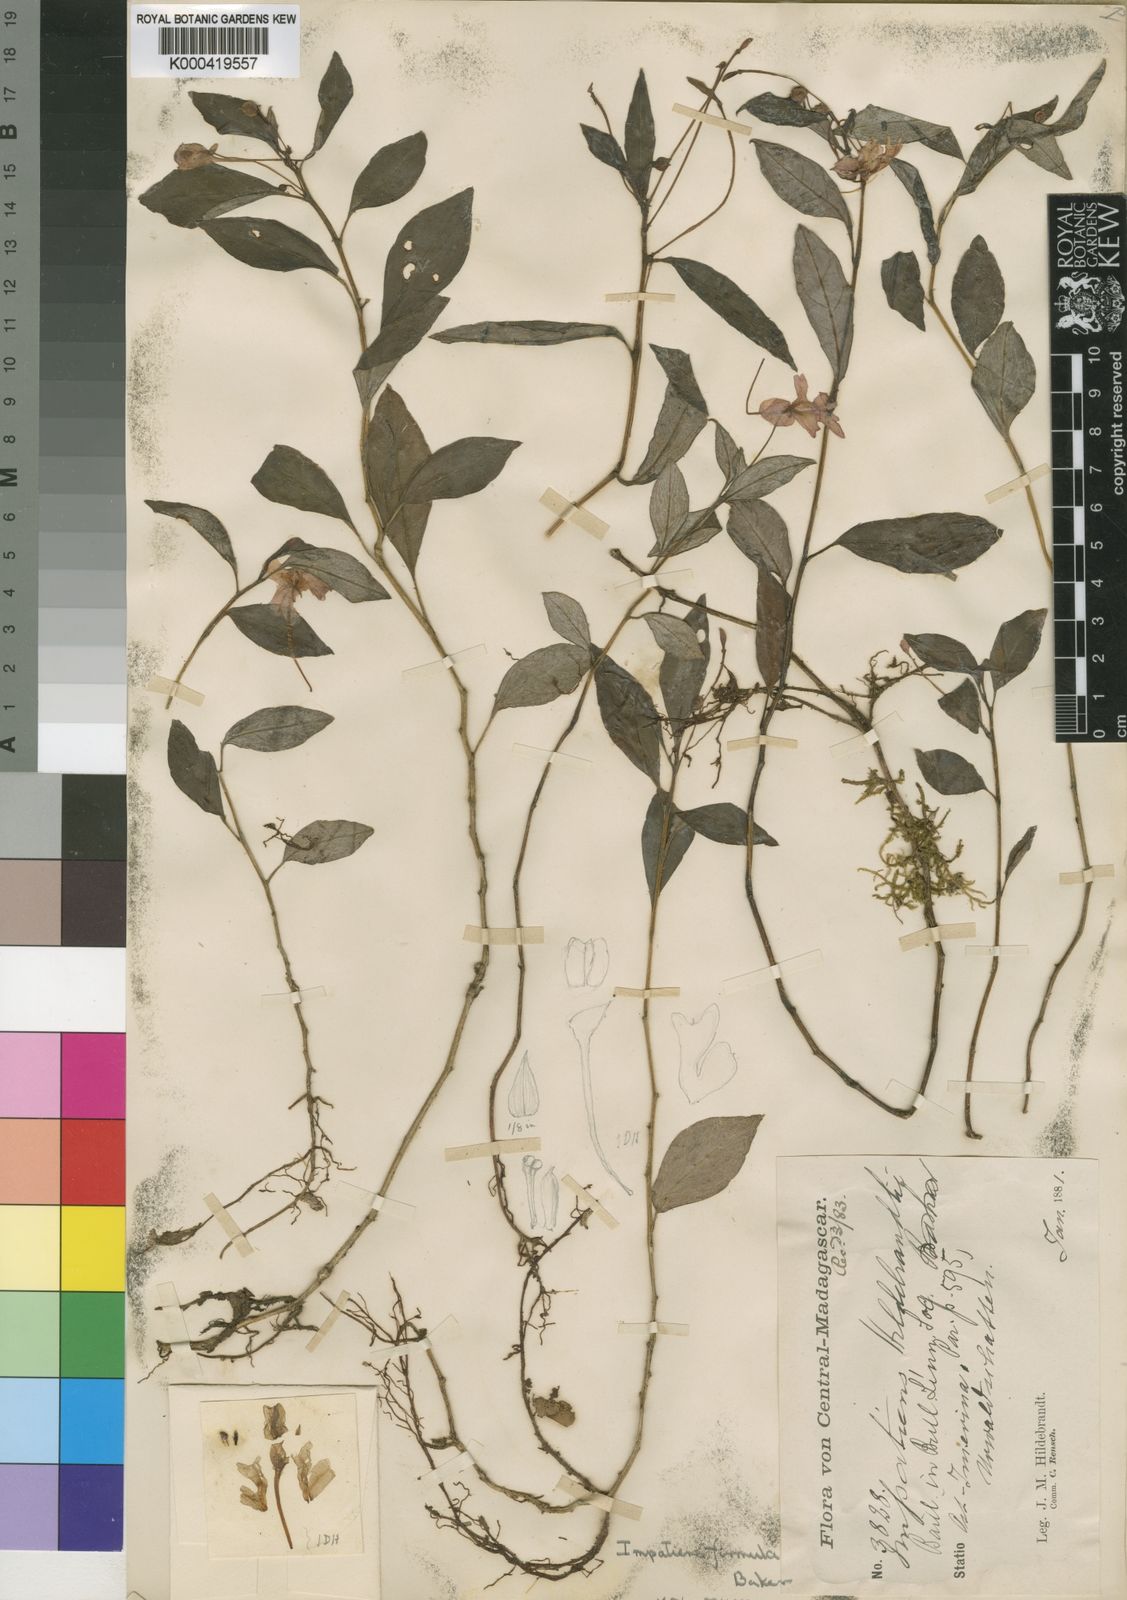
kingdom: Plantae
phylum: Tracheophyta
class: Magnoliopsida
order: Ericales
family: Balsaminaceae
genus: Impatiens
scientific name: Impatiens firmula
